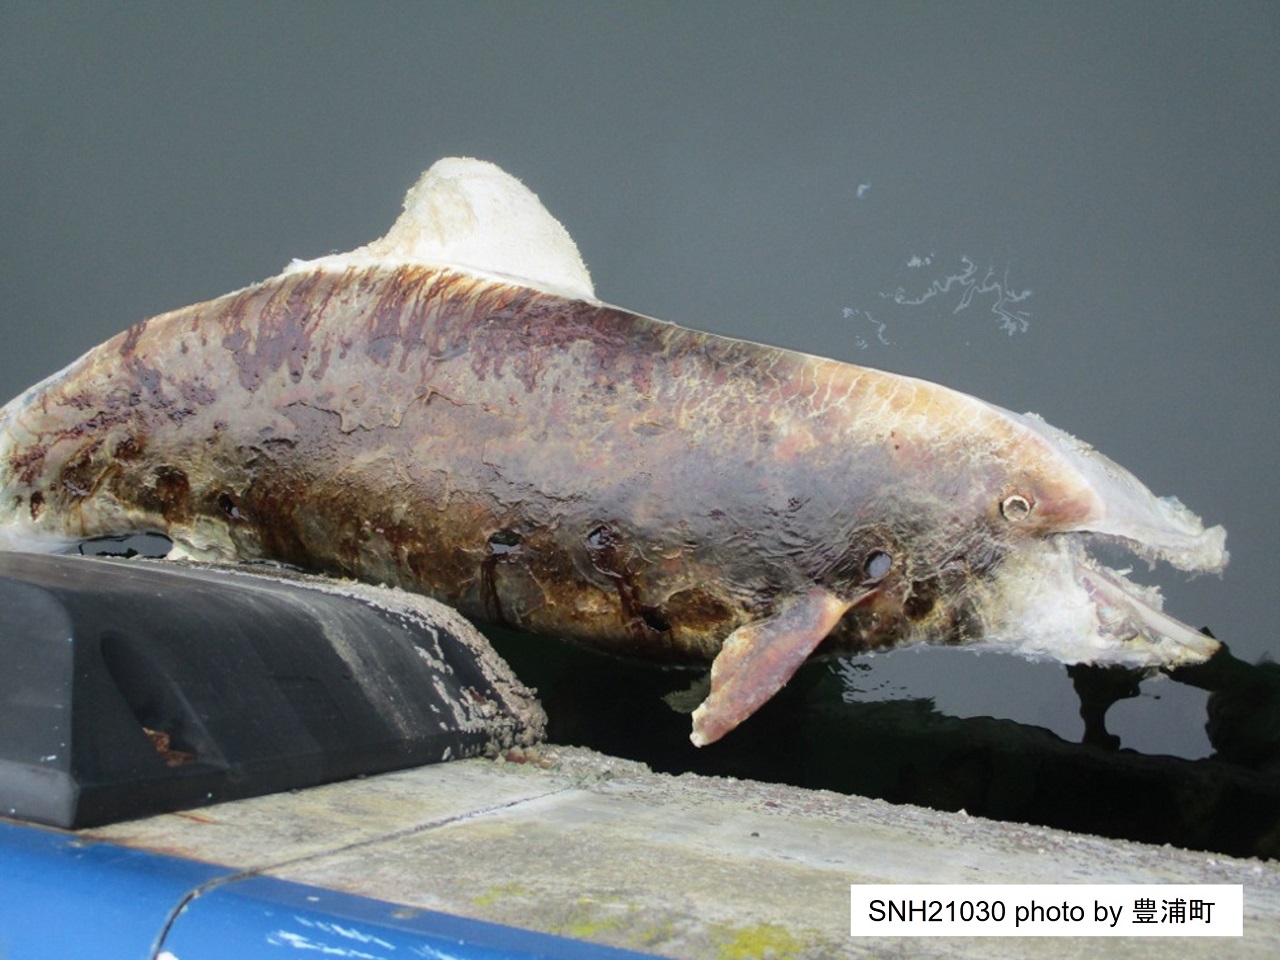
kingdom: Animalia
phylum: Chordata
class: Mammalia
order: Cetacea
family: Delphinidae
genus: Lagenorhynchus
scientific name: Lagenorhynchus obliquidens
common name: Pacific white-sided dolphin
